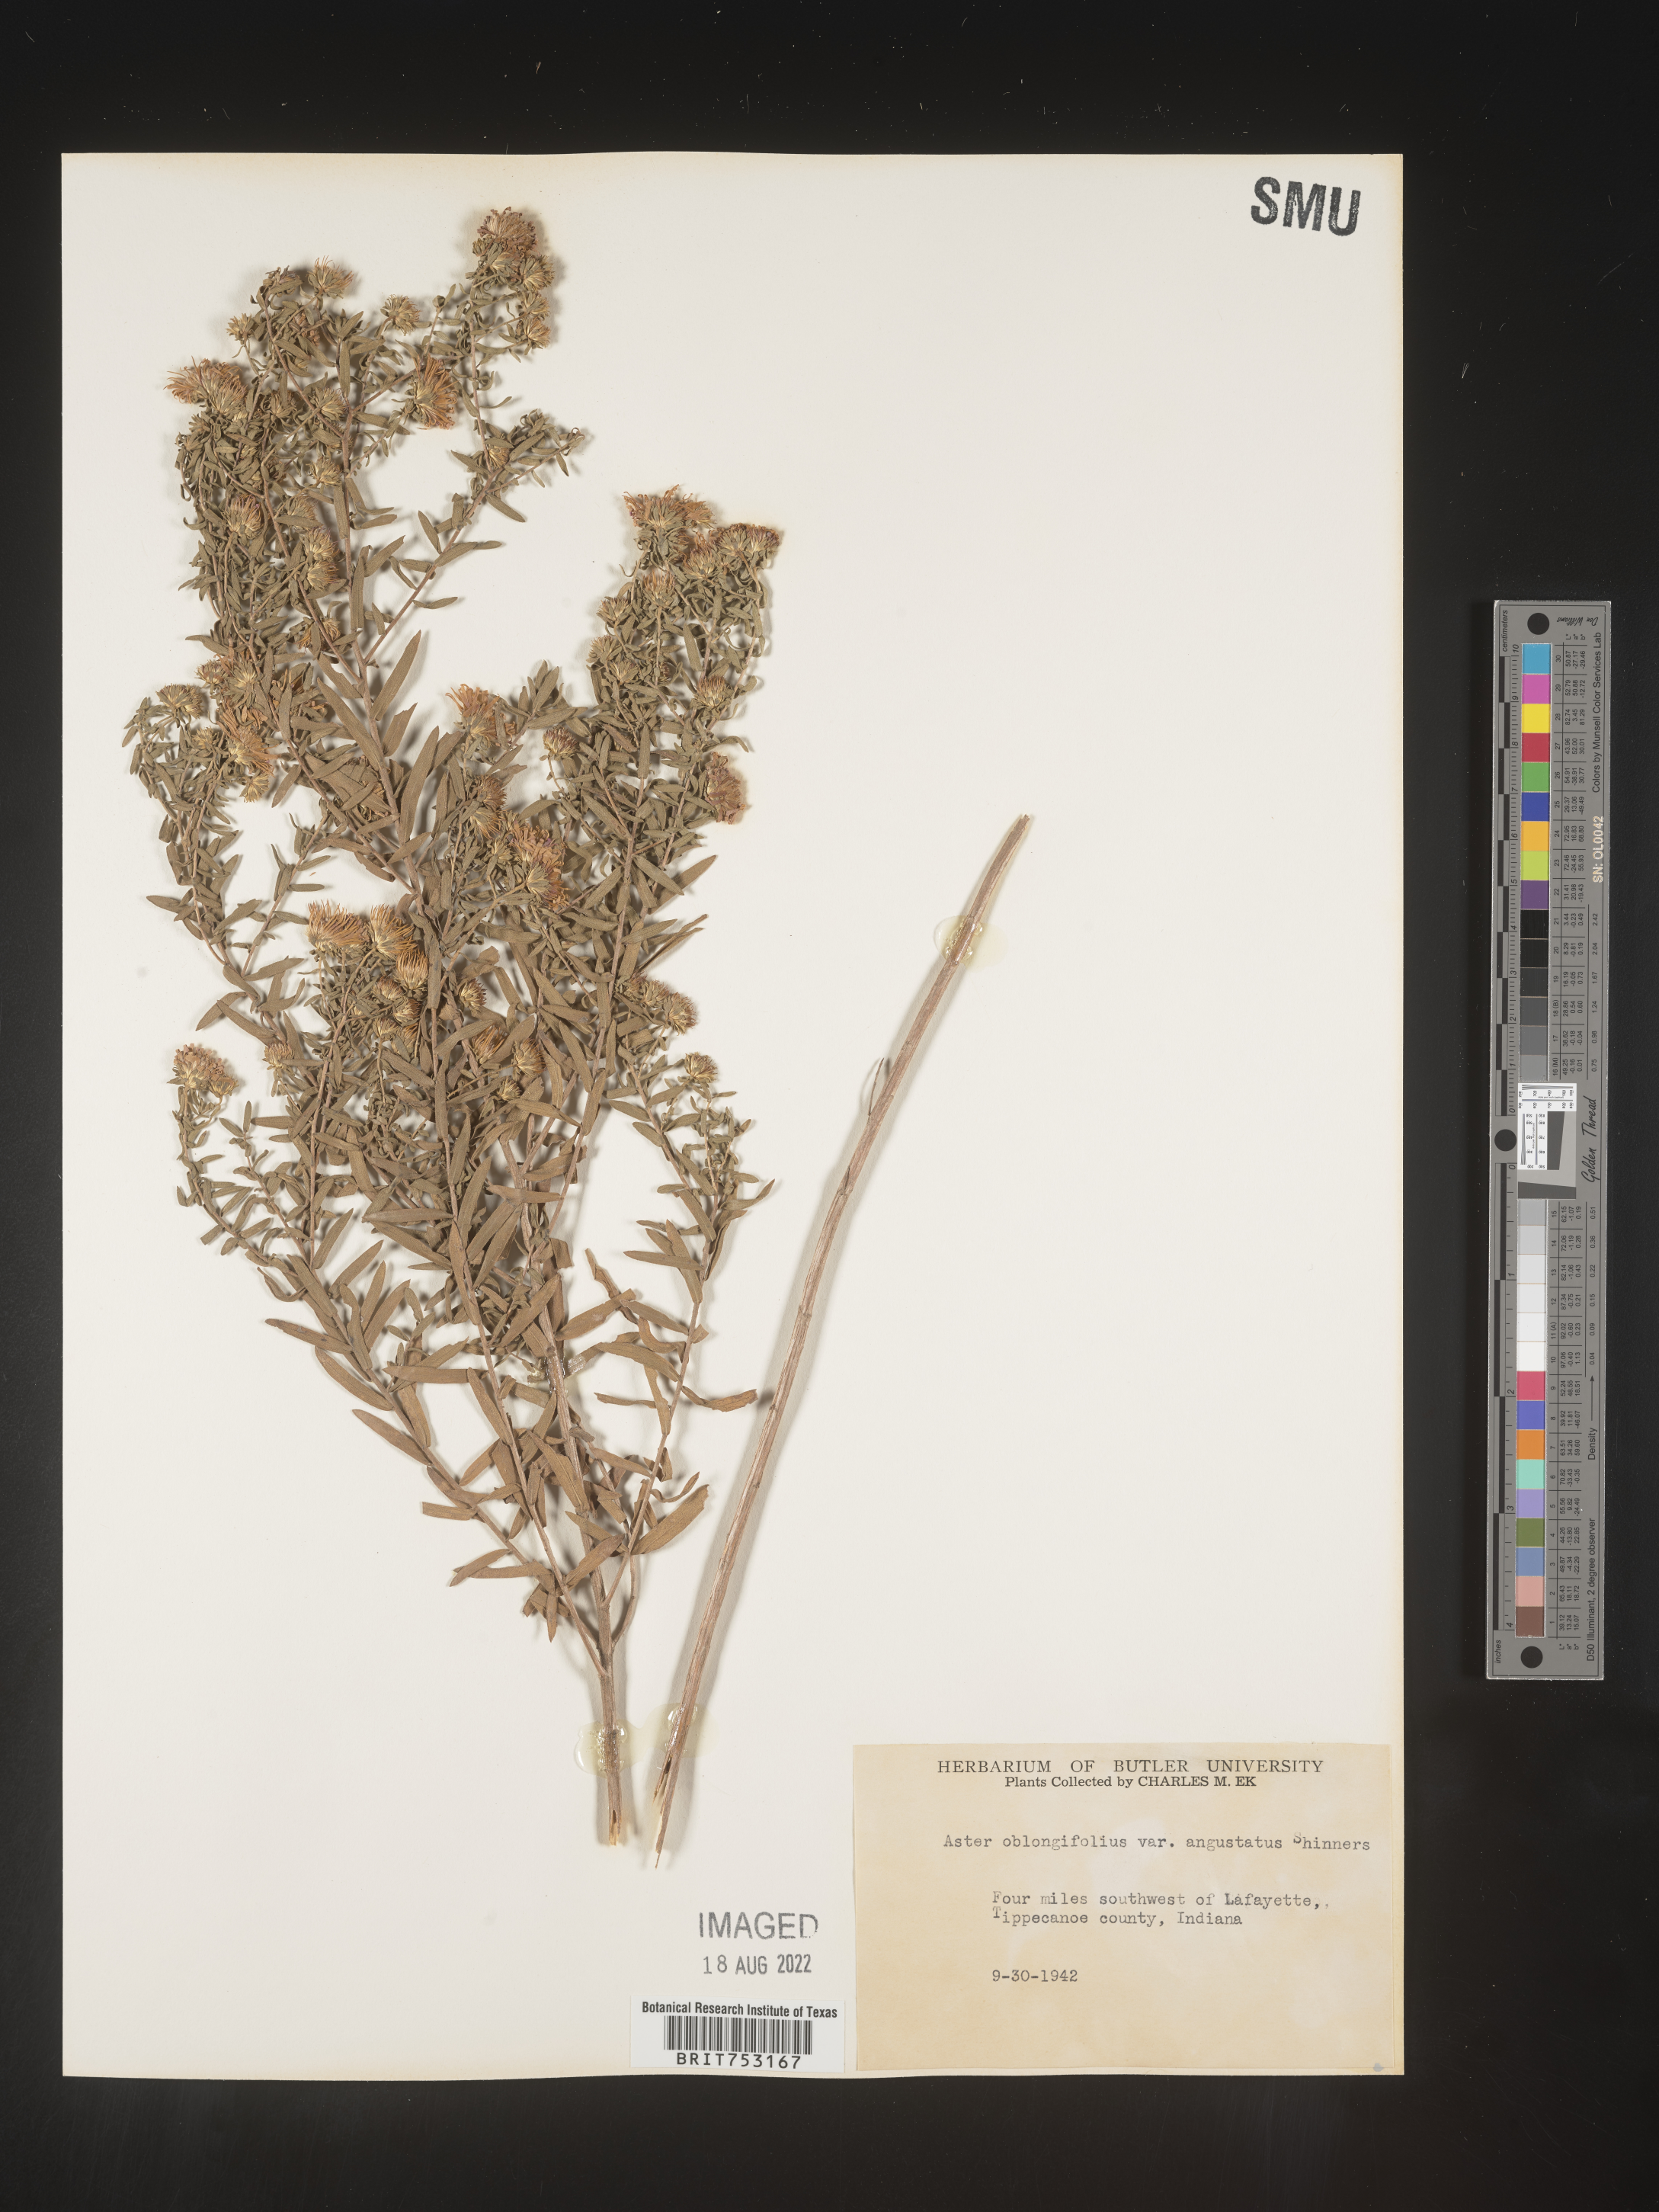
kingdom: Plantae
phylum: Tracheophyta
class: Magnoliopsida
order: Asterales
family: Asteraceae
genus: Symphyotrichum
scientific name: Symphyotrichum oblongifolium
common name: Aromatic aster
